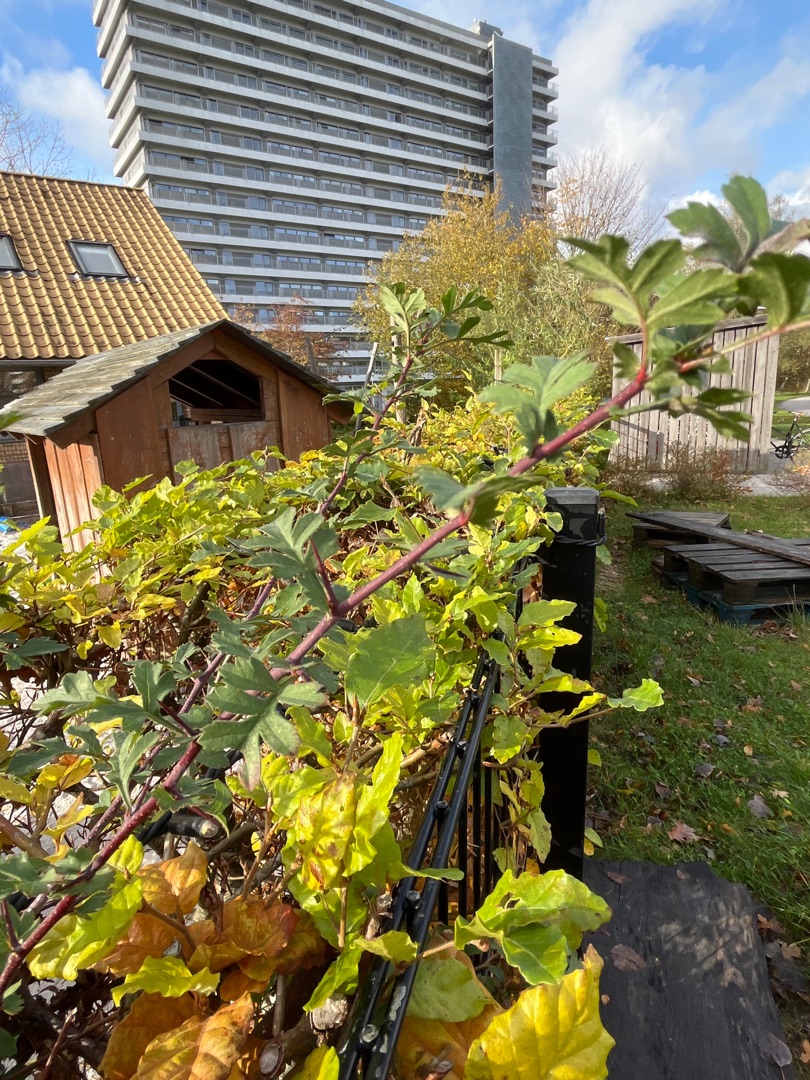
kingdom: Plantae
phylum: Tracheophyta
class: Magnoliopsida
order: Rosales
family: Rosaceae
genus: Crataegus
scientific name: Crataegus
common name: Hvidtjørnslægten
